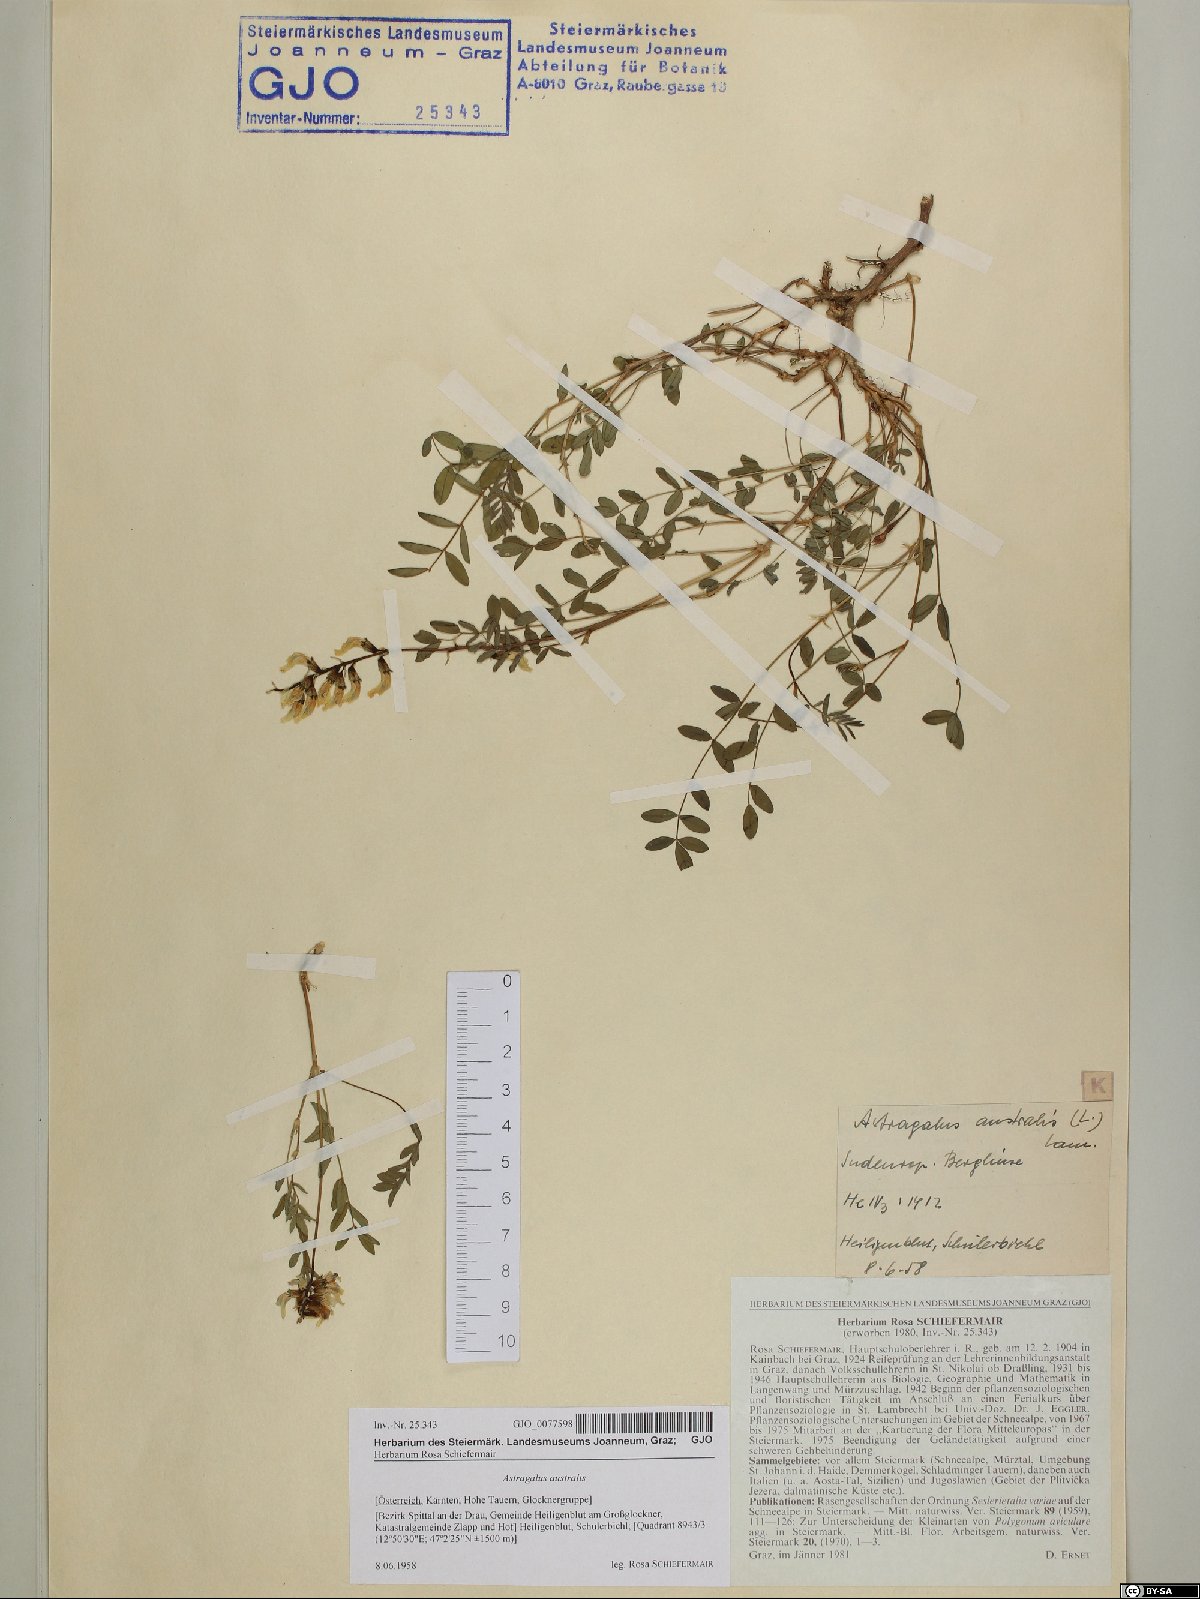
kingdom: Plantae
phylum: Tracheophyta
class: Magnoliopsida
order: Fabales
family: Fabaceae
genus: Astragalus
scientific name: Astragalus australis
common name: Indian milk-vetch
